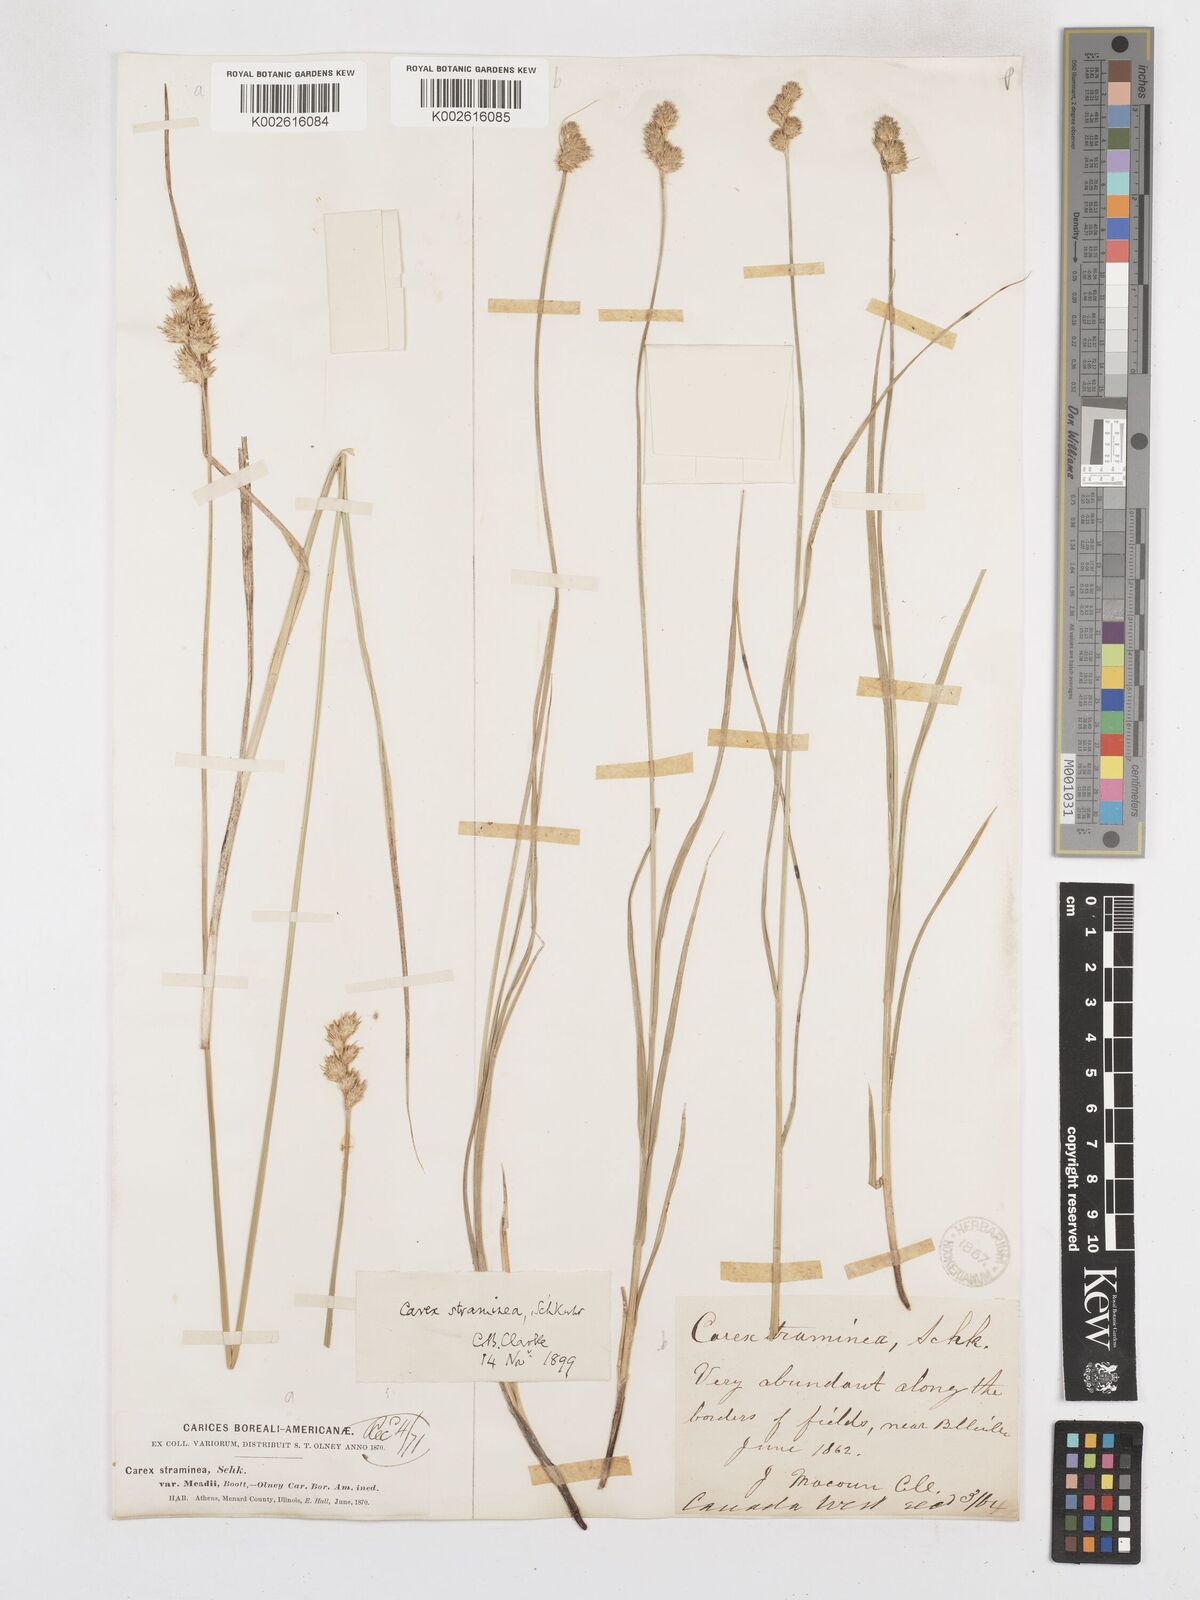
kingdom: Plantae
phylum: Tracheophyta
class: Liliopsida
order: Poales
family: Cyperaceae
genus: Carex
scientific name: Carex brevior
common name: Brevior sedge
